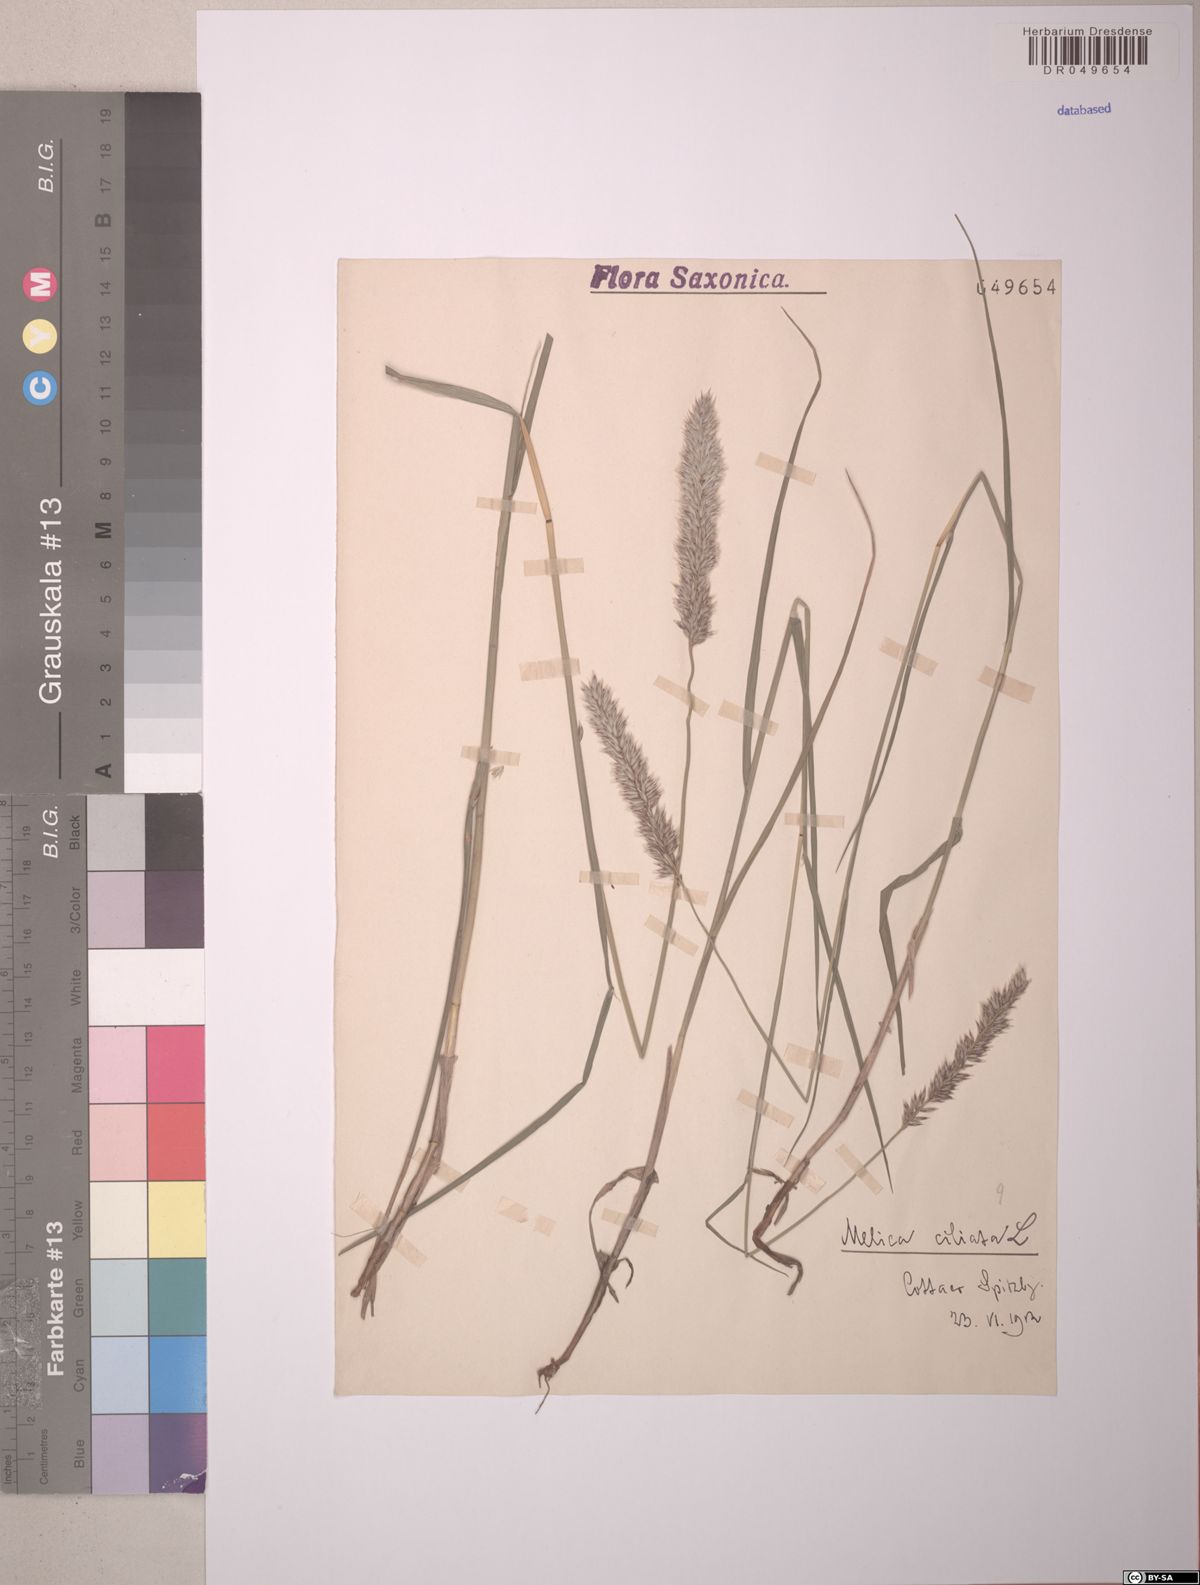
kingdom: Plantae
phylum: Tracheophyta
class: Liliopsida
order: Poales
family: Poaceae
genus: Melica
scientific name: Melica transsilvanica
